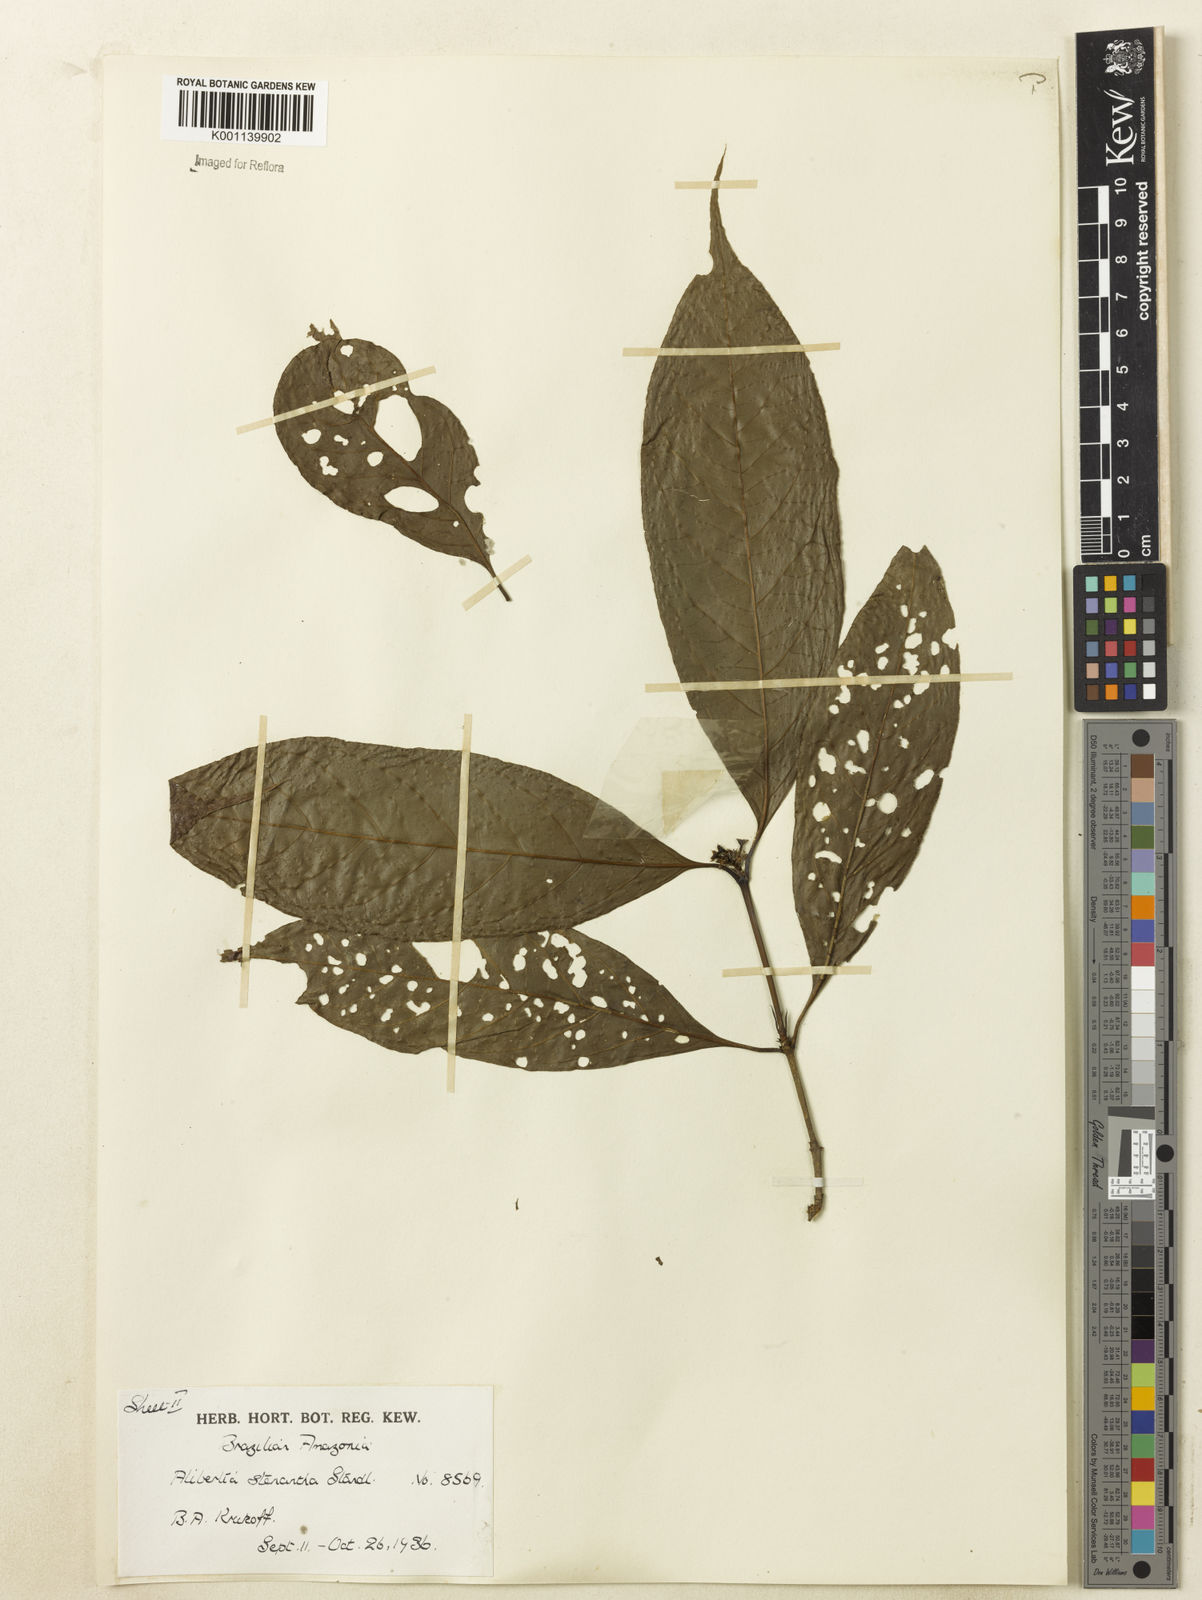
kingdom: Plantae
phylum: Tracheophyta
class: Magnoliopsida
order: Gentianales
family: Rubiaceae
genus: Alibertia
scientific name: Alibertia bertierifolia
